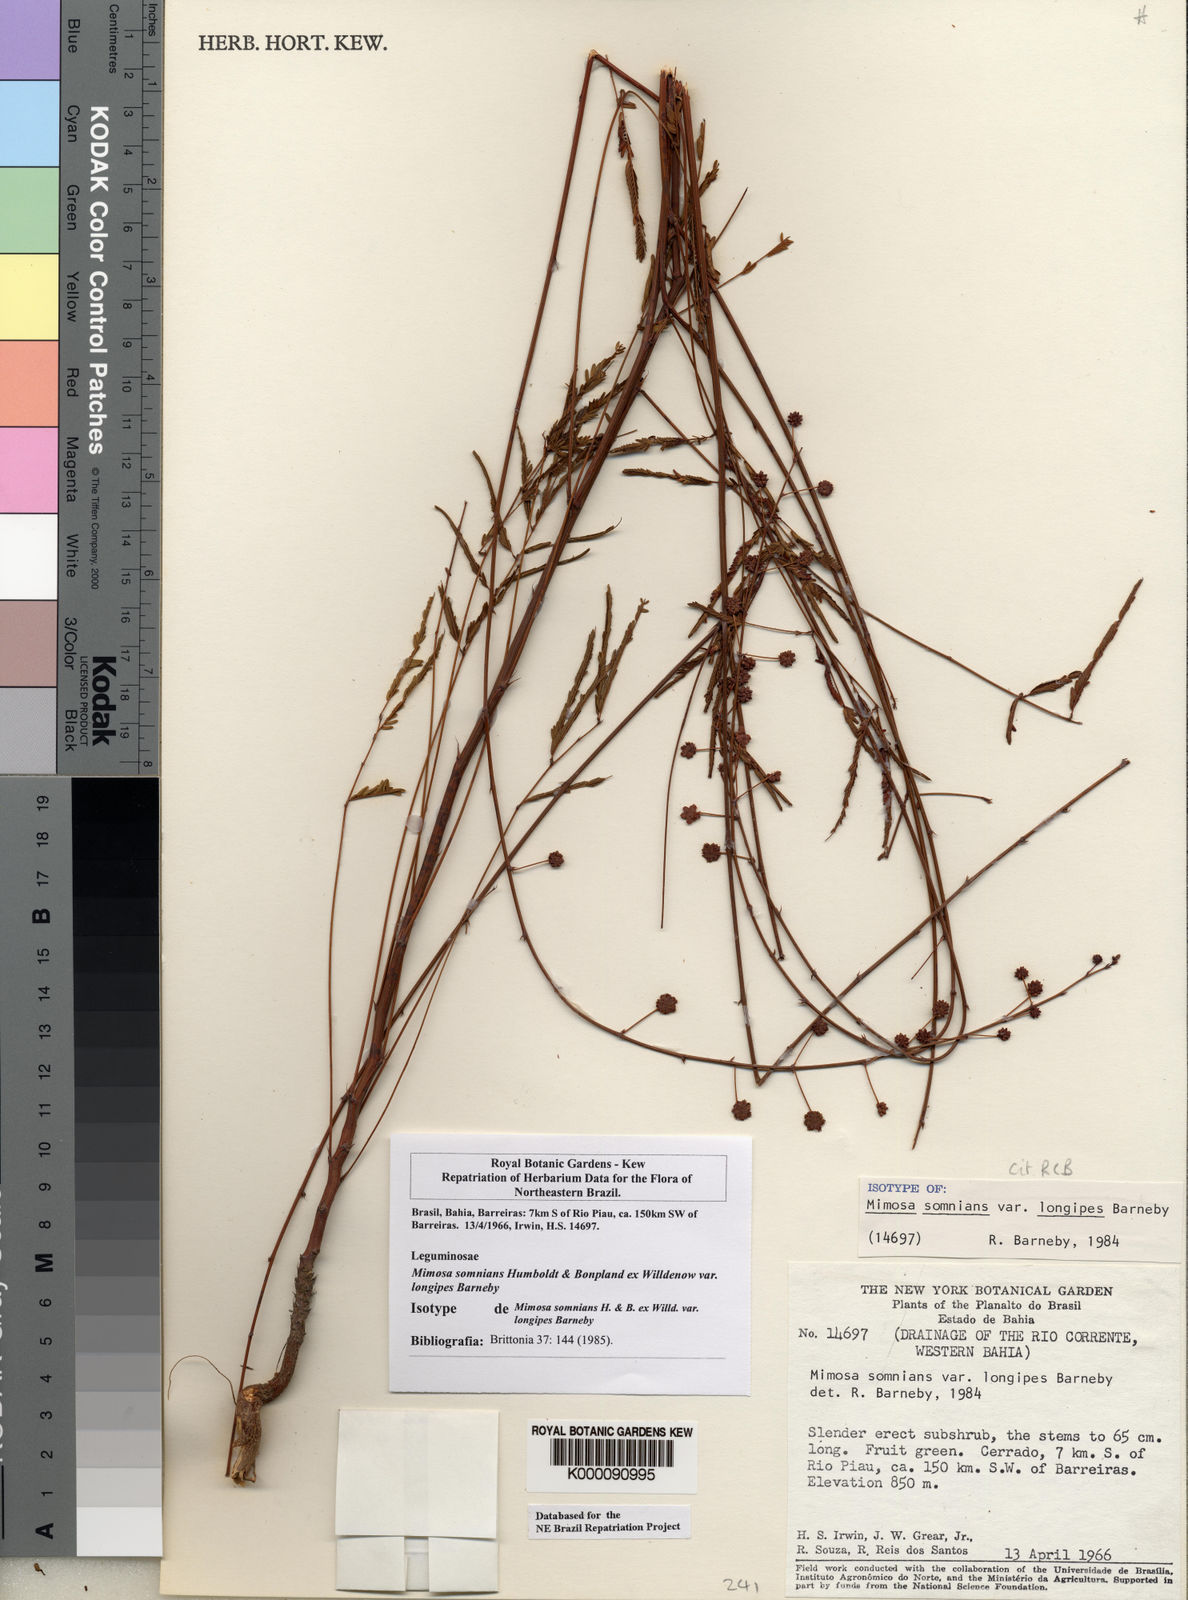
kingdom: Plantae
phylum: Tracheophyta
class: Magnoliopsida
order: Fabales
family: Fabaceae
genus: Mimosa
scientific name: Mimosa somnians
